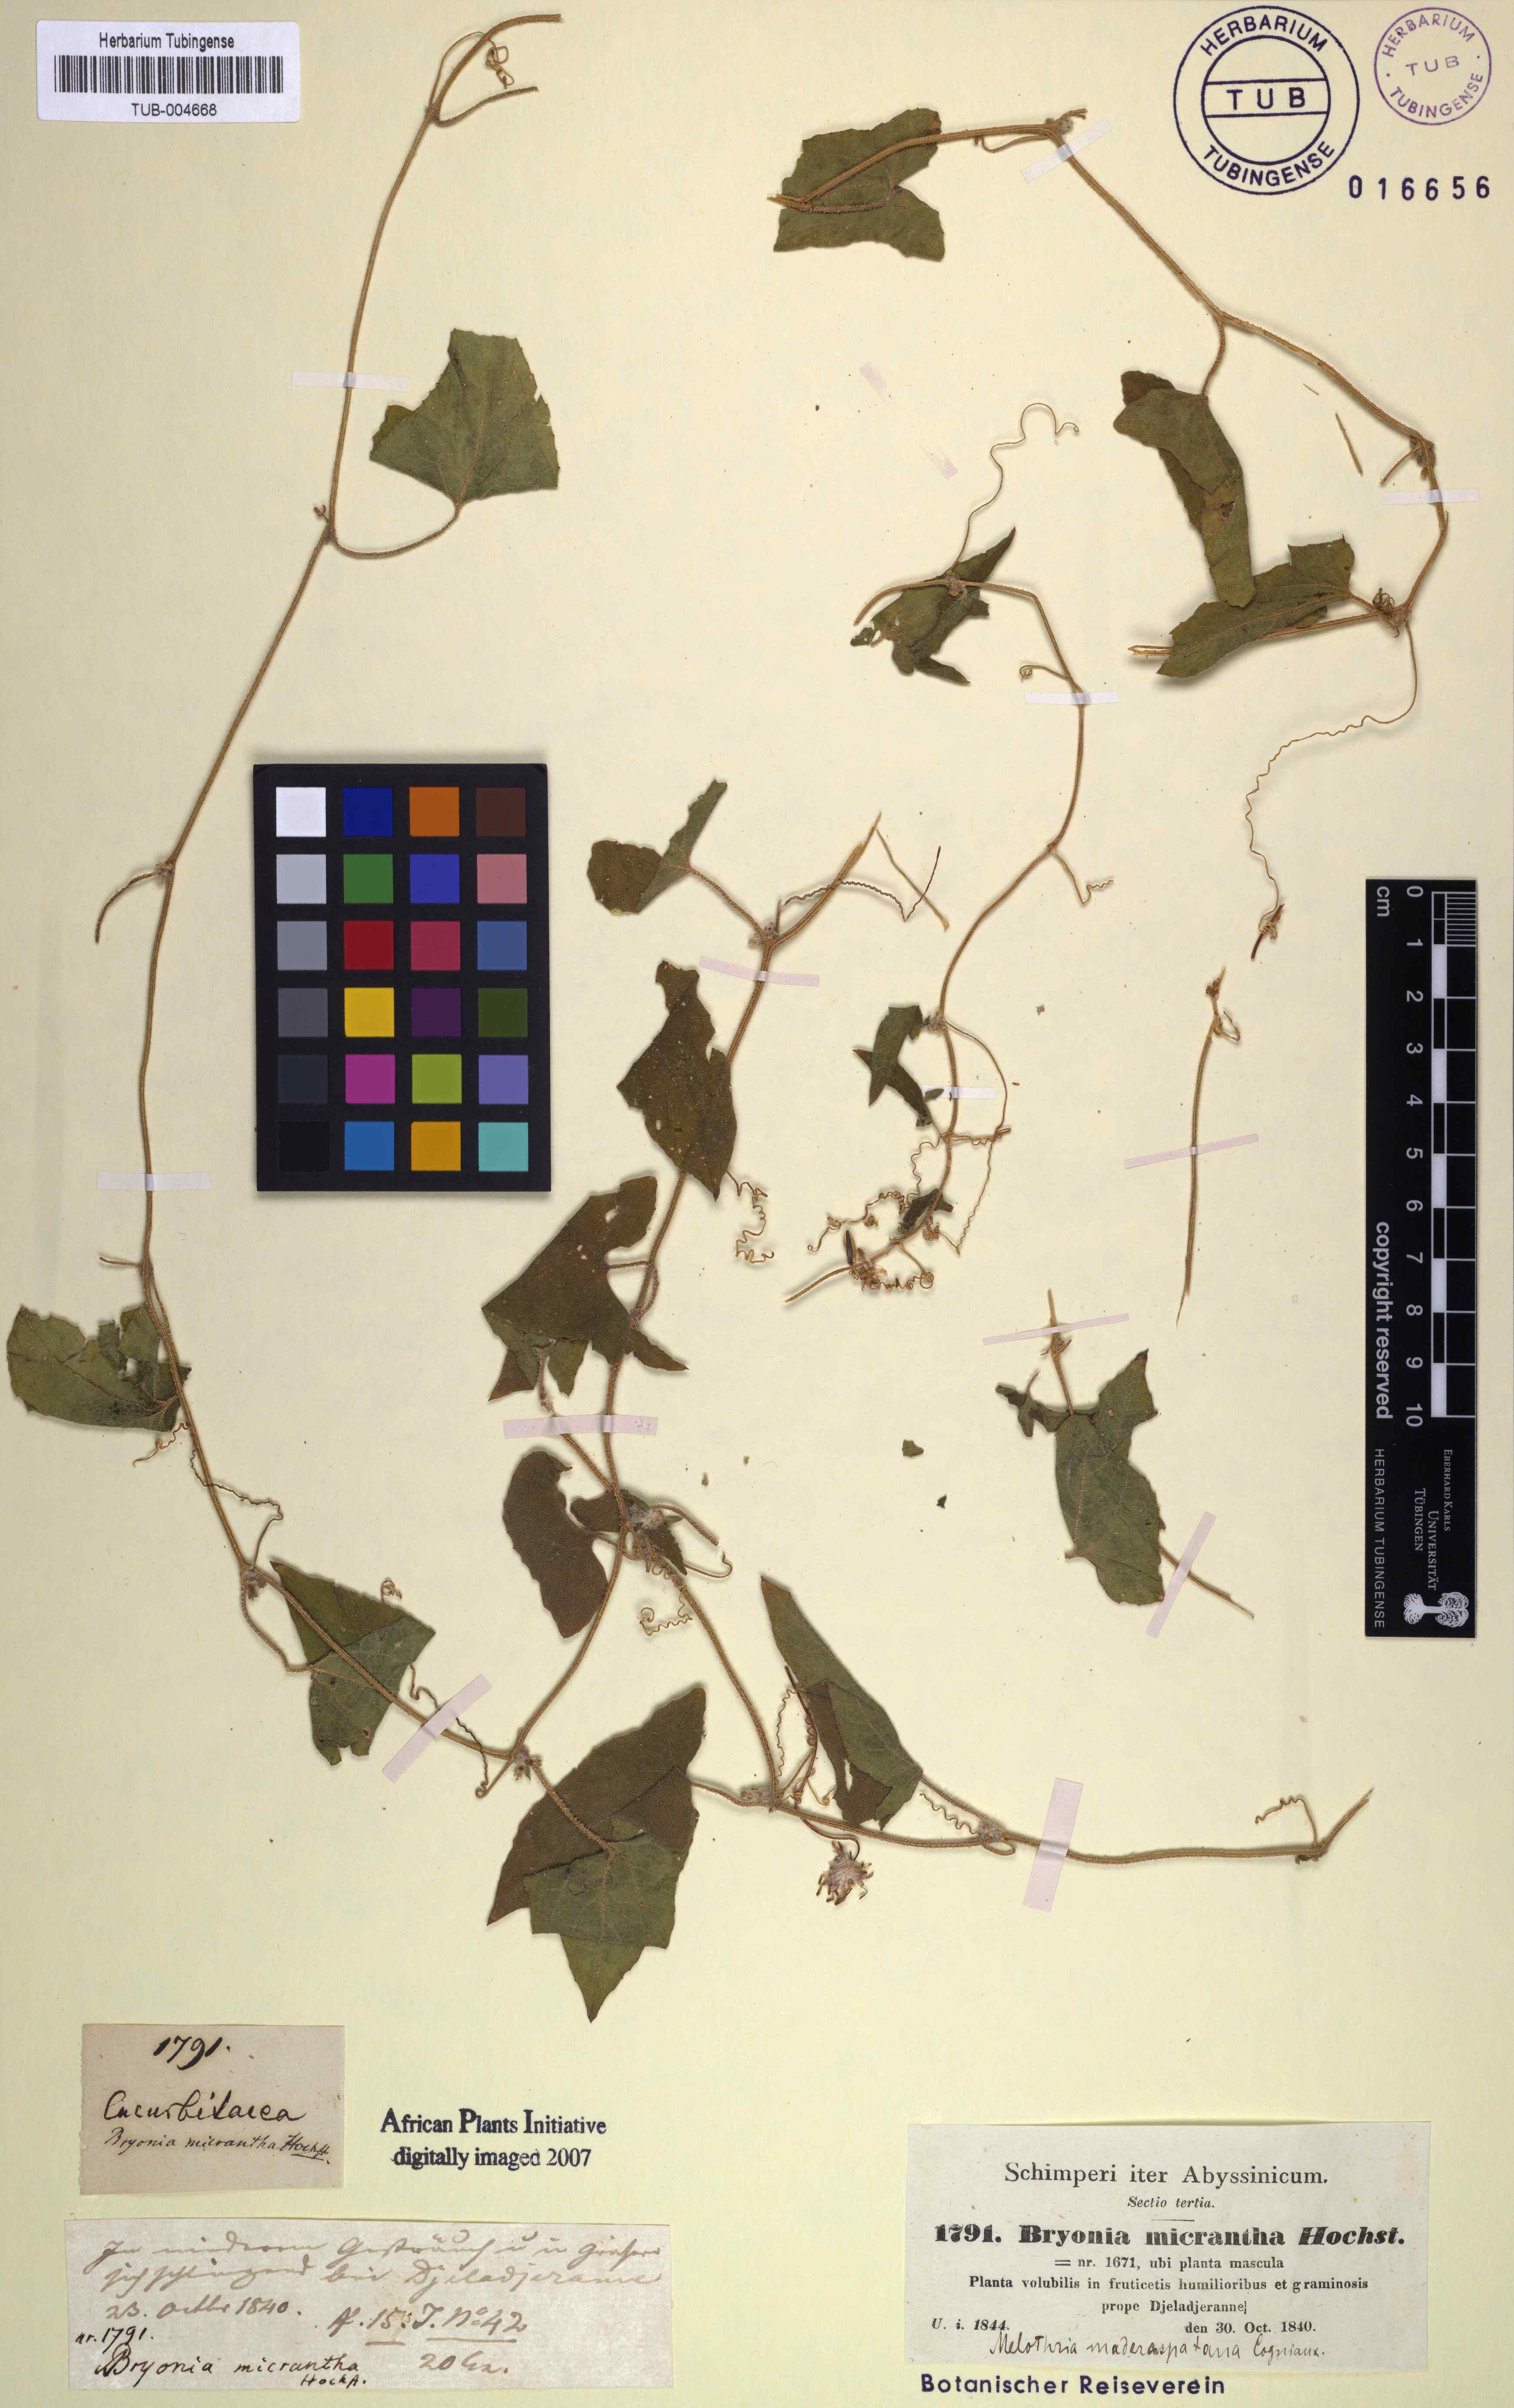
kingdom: Plantae
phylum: Tracheophyta
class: Magnoliopsida
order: Cucurbitales
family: Cucurbitaceae
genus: Cucumis
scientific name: Cucumis maderaspatanus
